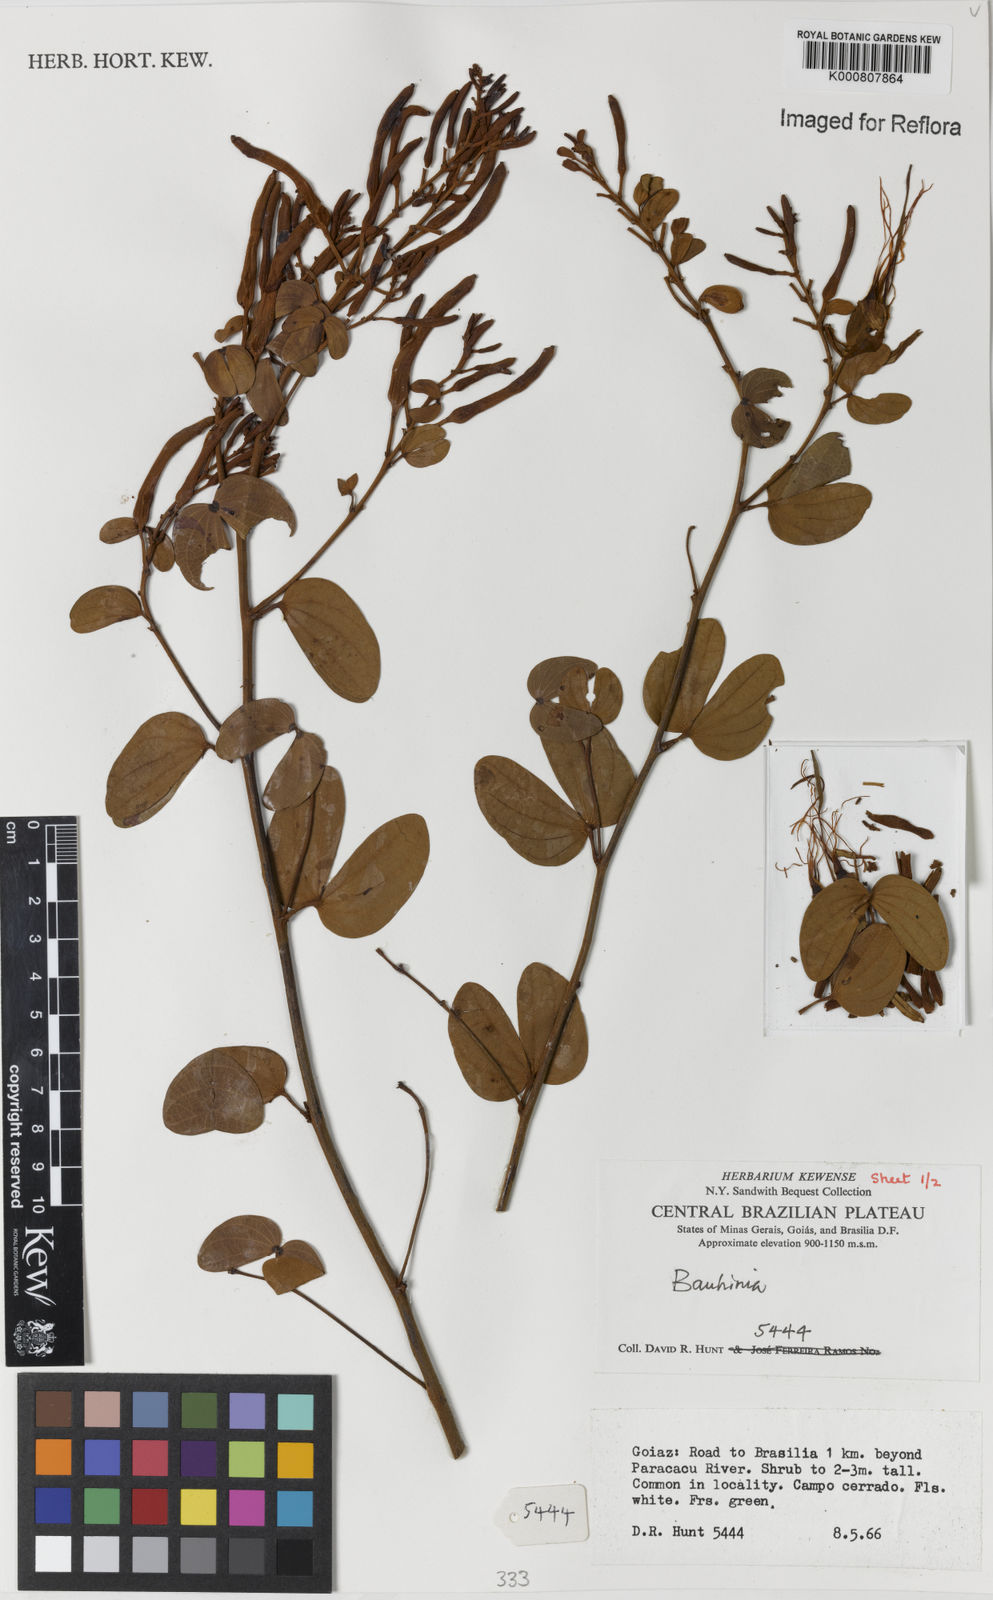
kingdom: Plantae
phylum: Tracheophyta
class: Magnoliopsida
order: Fabales
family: Fabaceae
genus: Bauhinia
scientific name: Bauhinia
